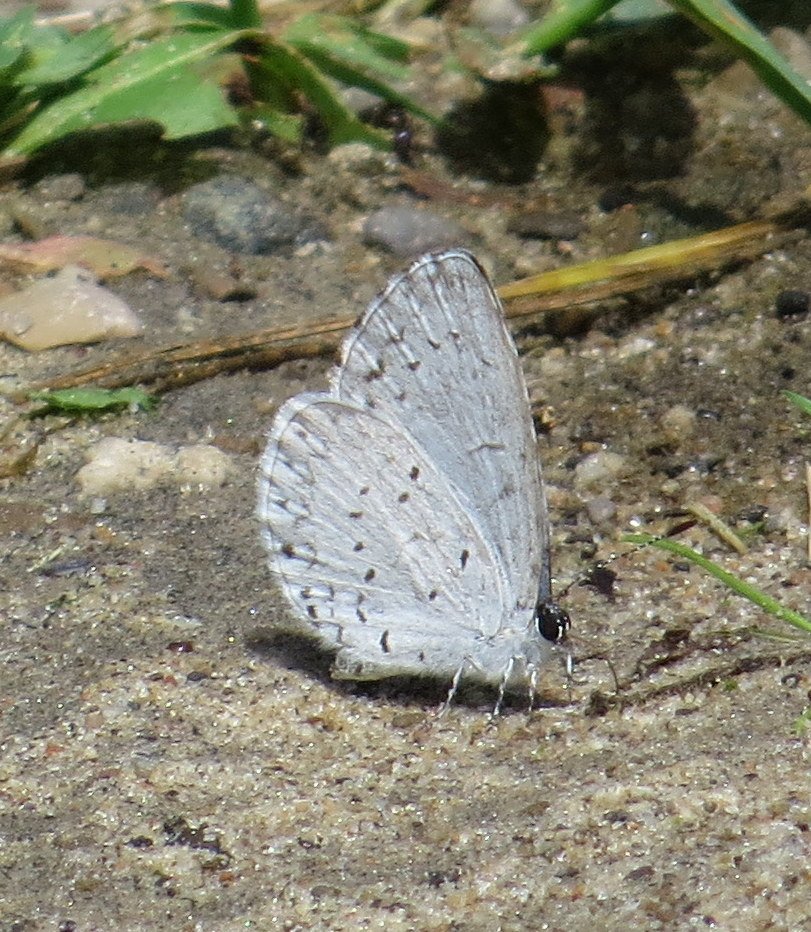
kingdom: Animalia
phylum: Arthropoda
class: Insecta
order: Lepidoptera
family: Lycaenidae
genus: Celastrina
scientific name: Celastrina
